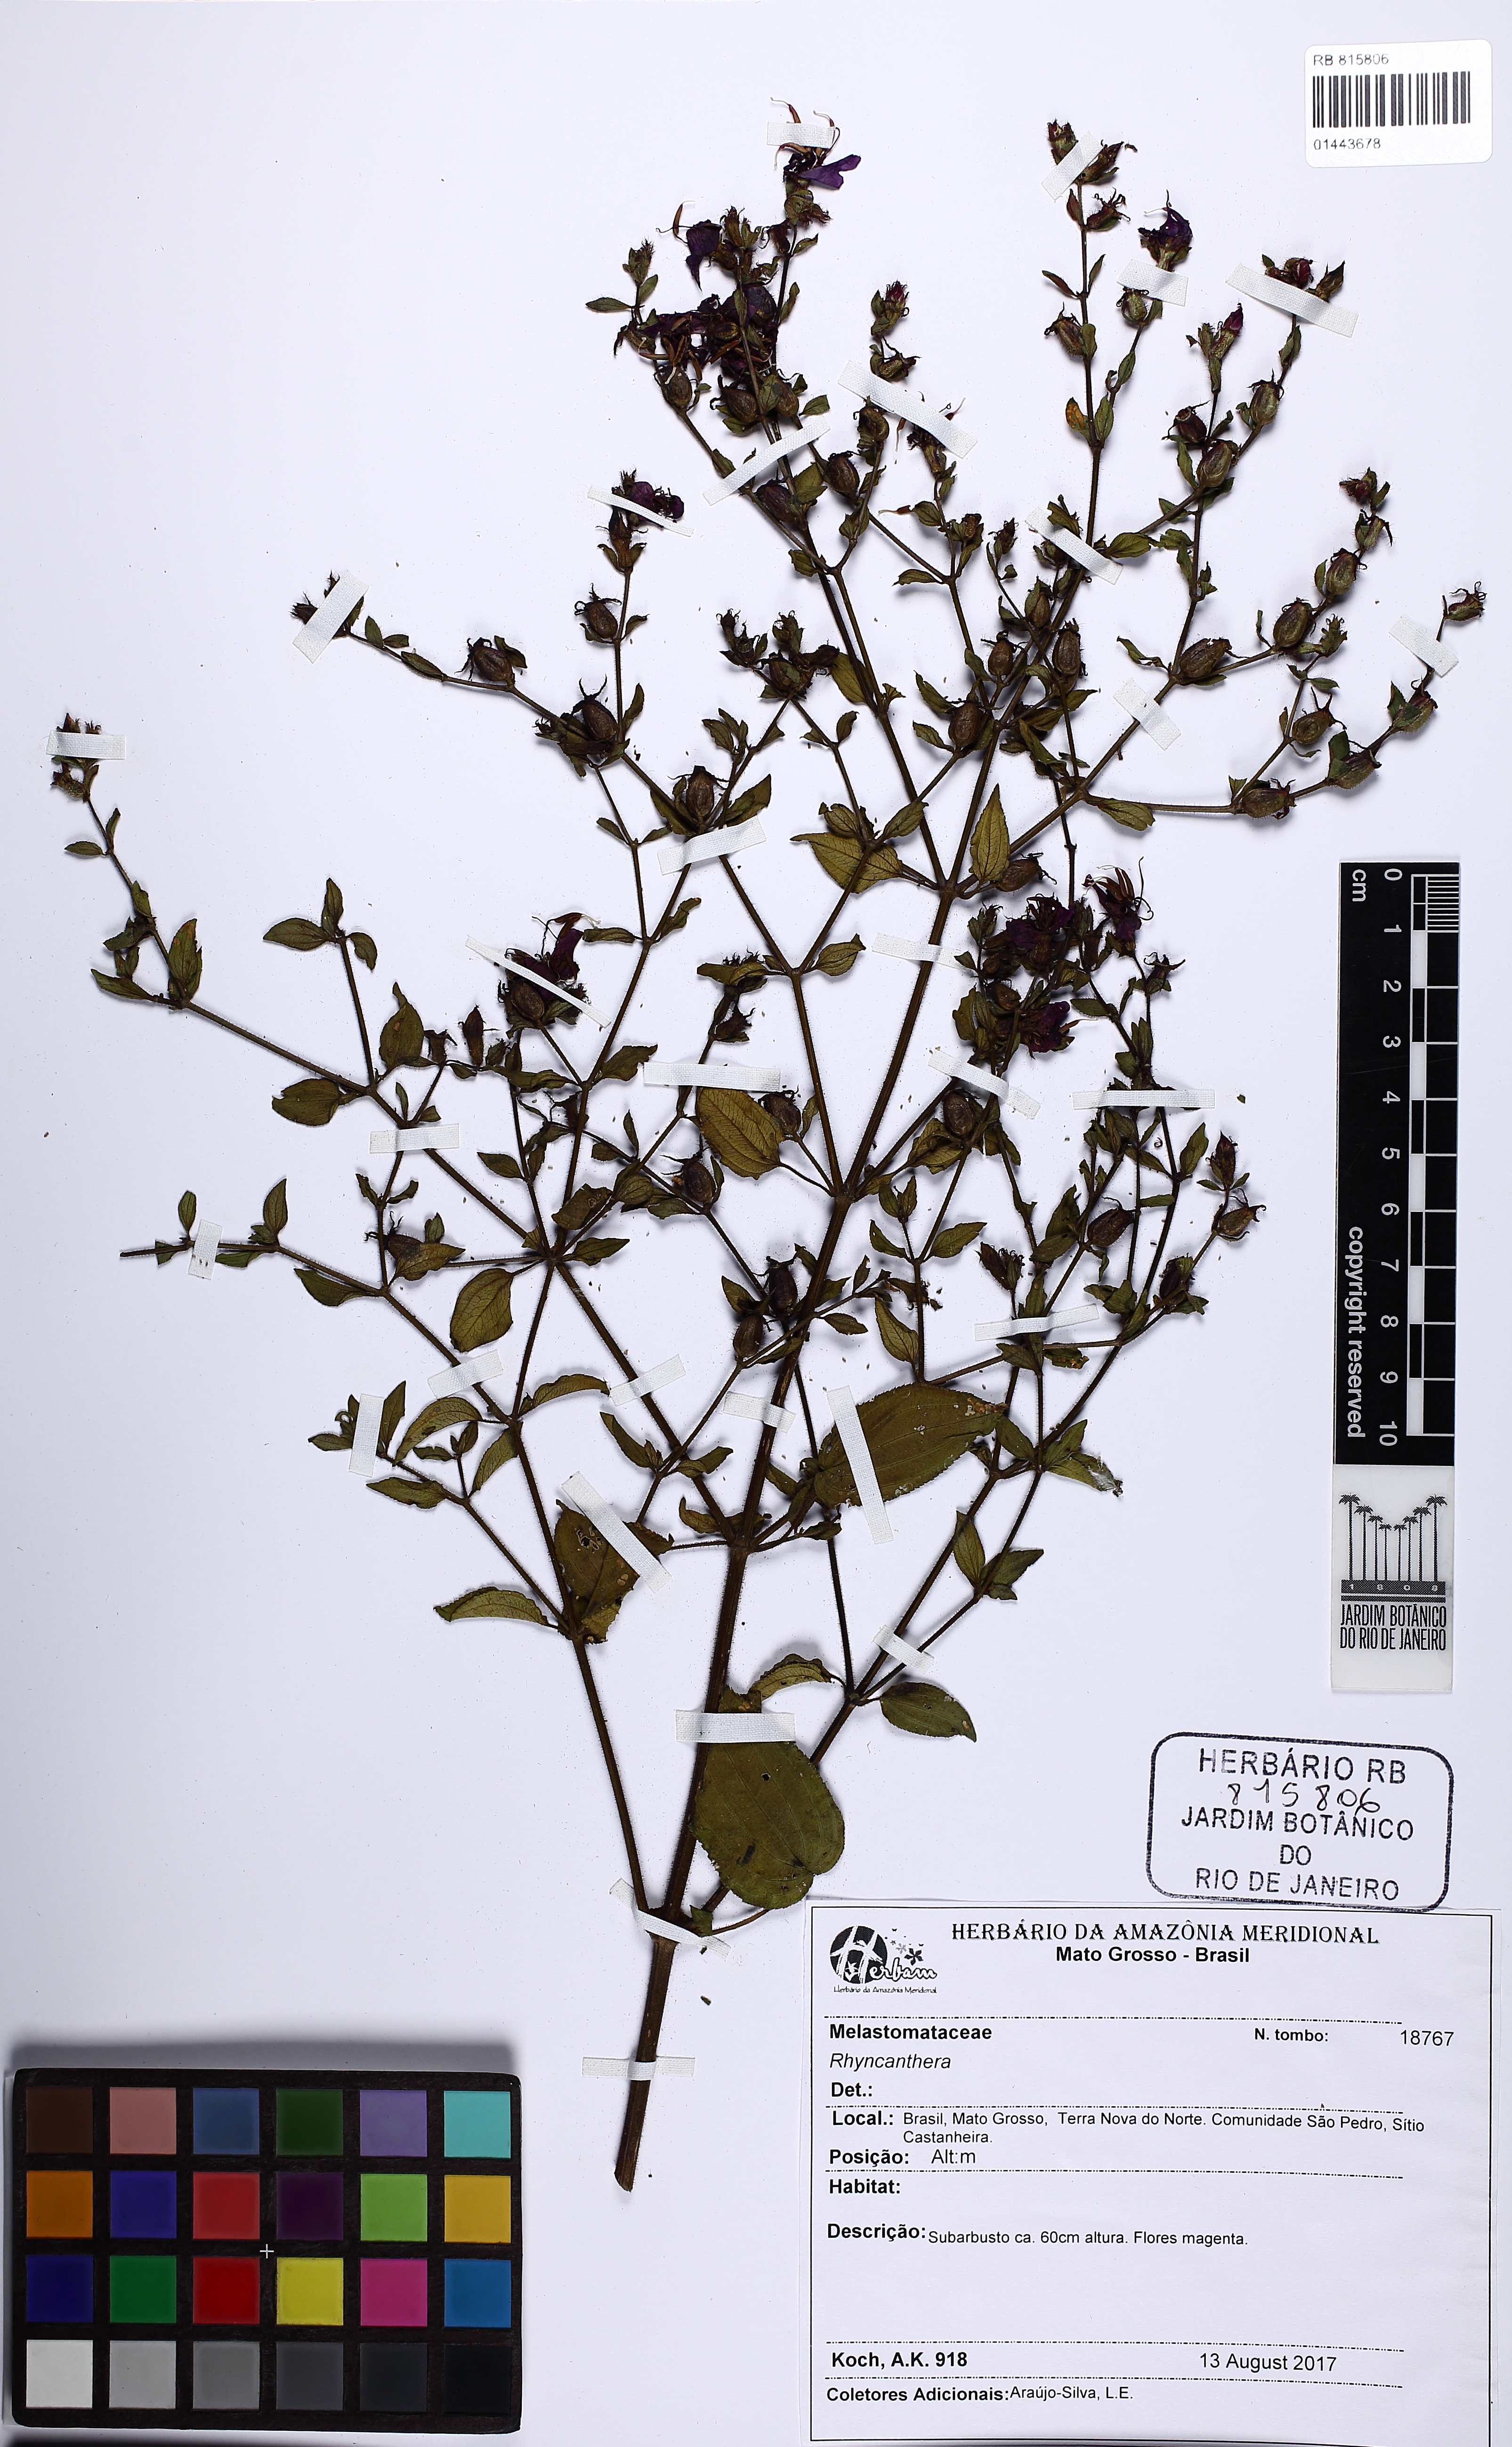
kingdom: Plantae
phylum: Tracheophyta
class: Magnoliopsida
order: Myrtales
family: Melastomataceae
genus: Rhynchanthera
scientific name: Rhynchanthera
